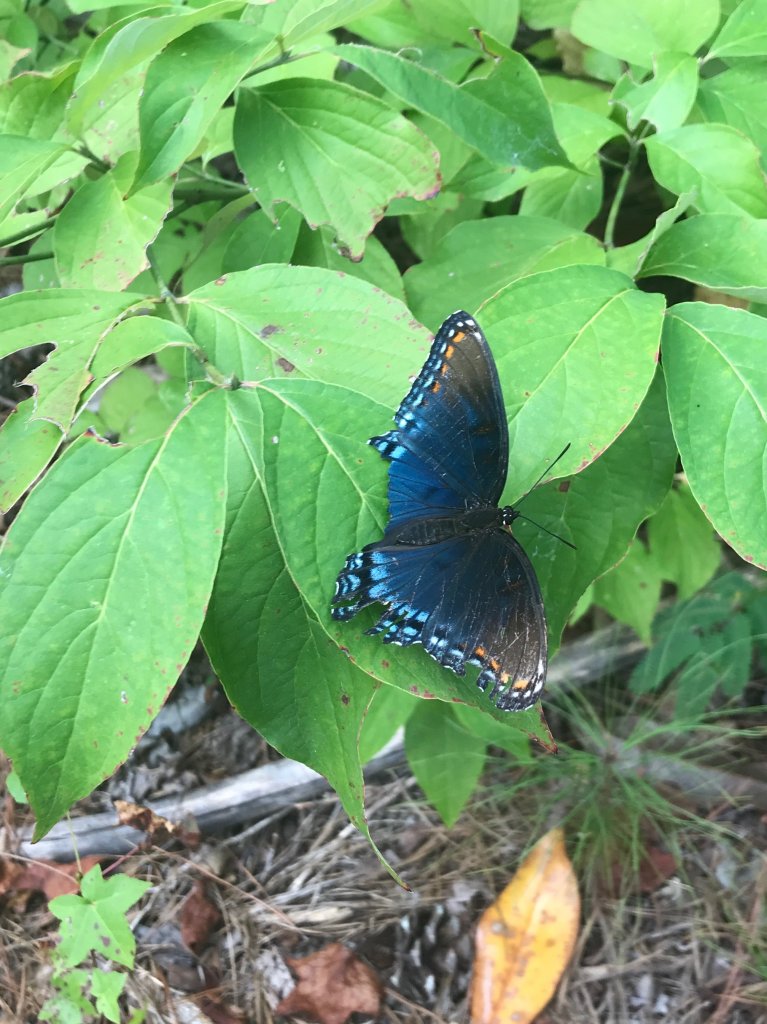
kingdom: Animalia
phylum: Arthropoda
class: Insecta
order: Lepidoptera
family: Nymphalidae
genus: Limenitis
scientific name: Limenitis astyanax
